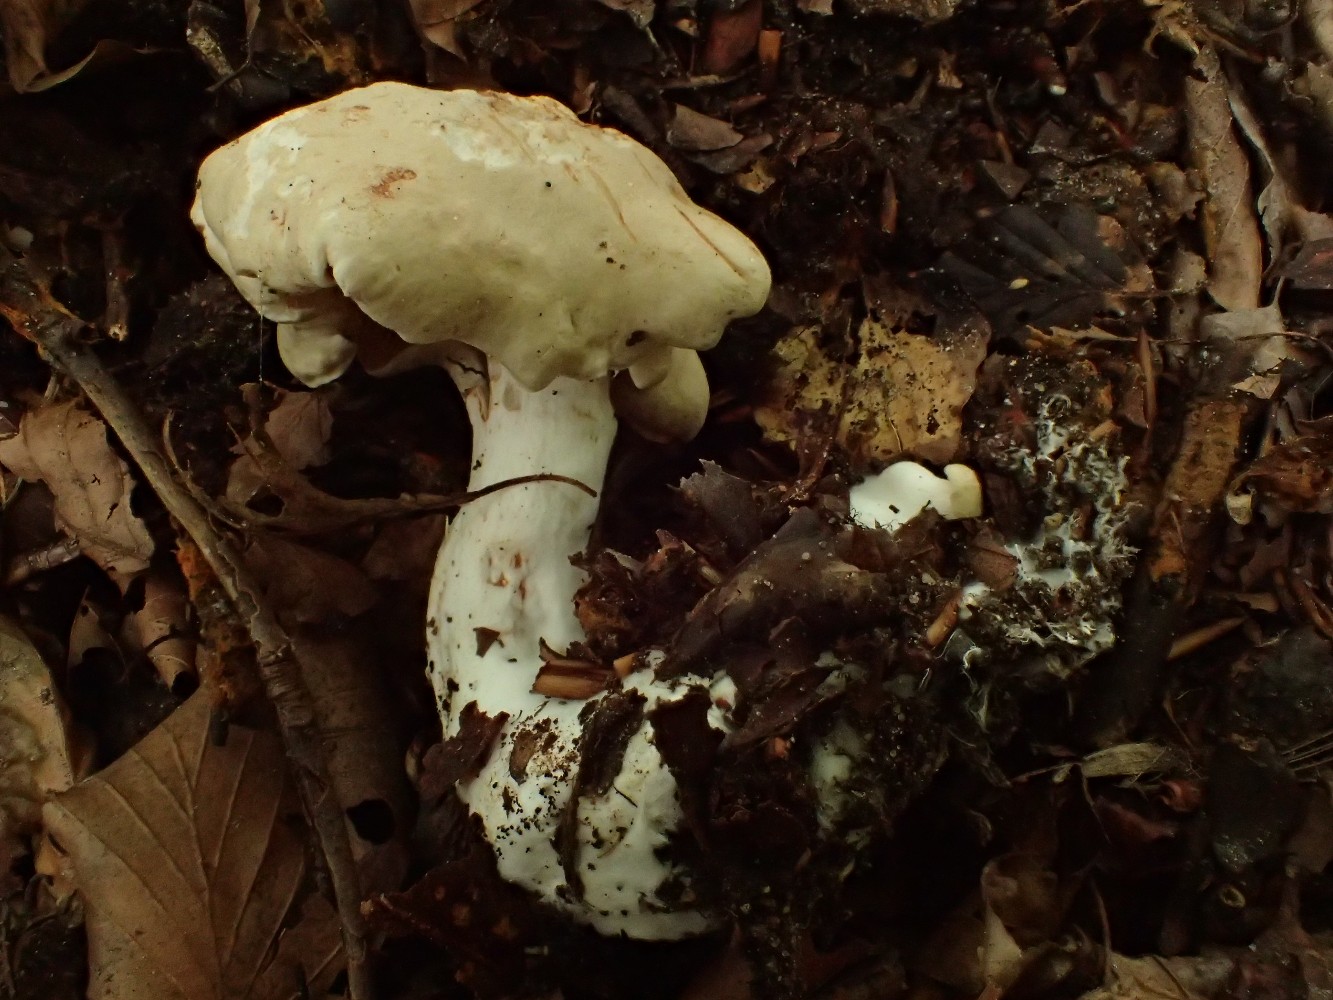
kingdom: Fungi
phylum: Basidiomycota
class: Agaricomycetes
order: Agaricales
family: Tricholomataceae
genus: Tricholoma
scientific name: Tricholoma lascivum
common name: stinkende ridderhat
